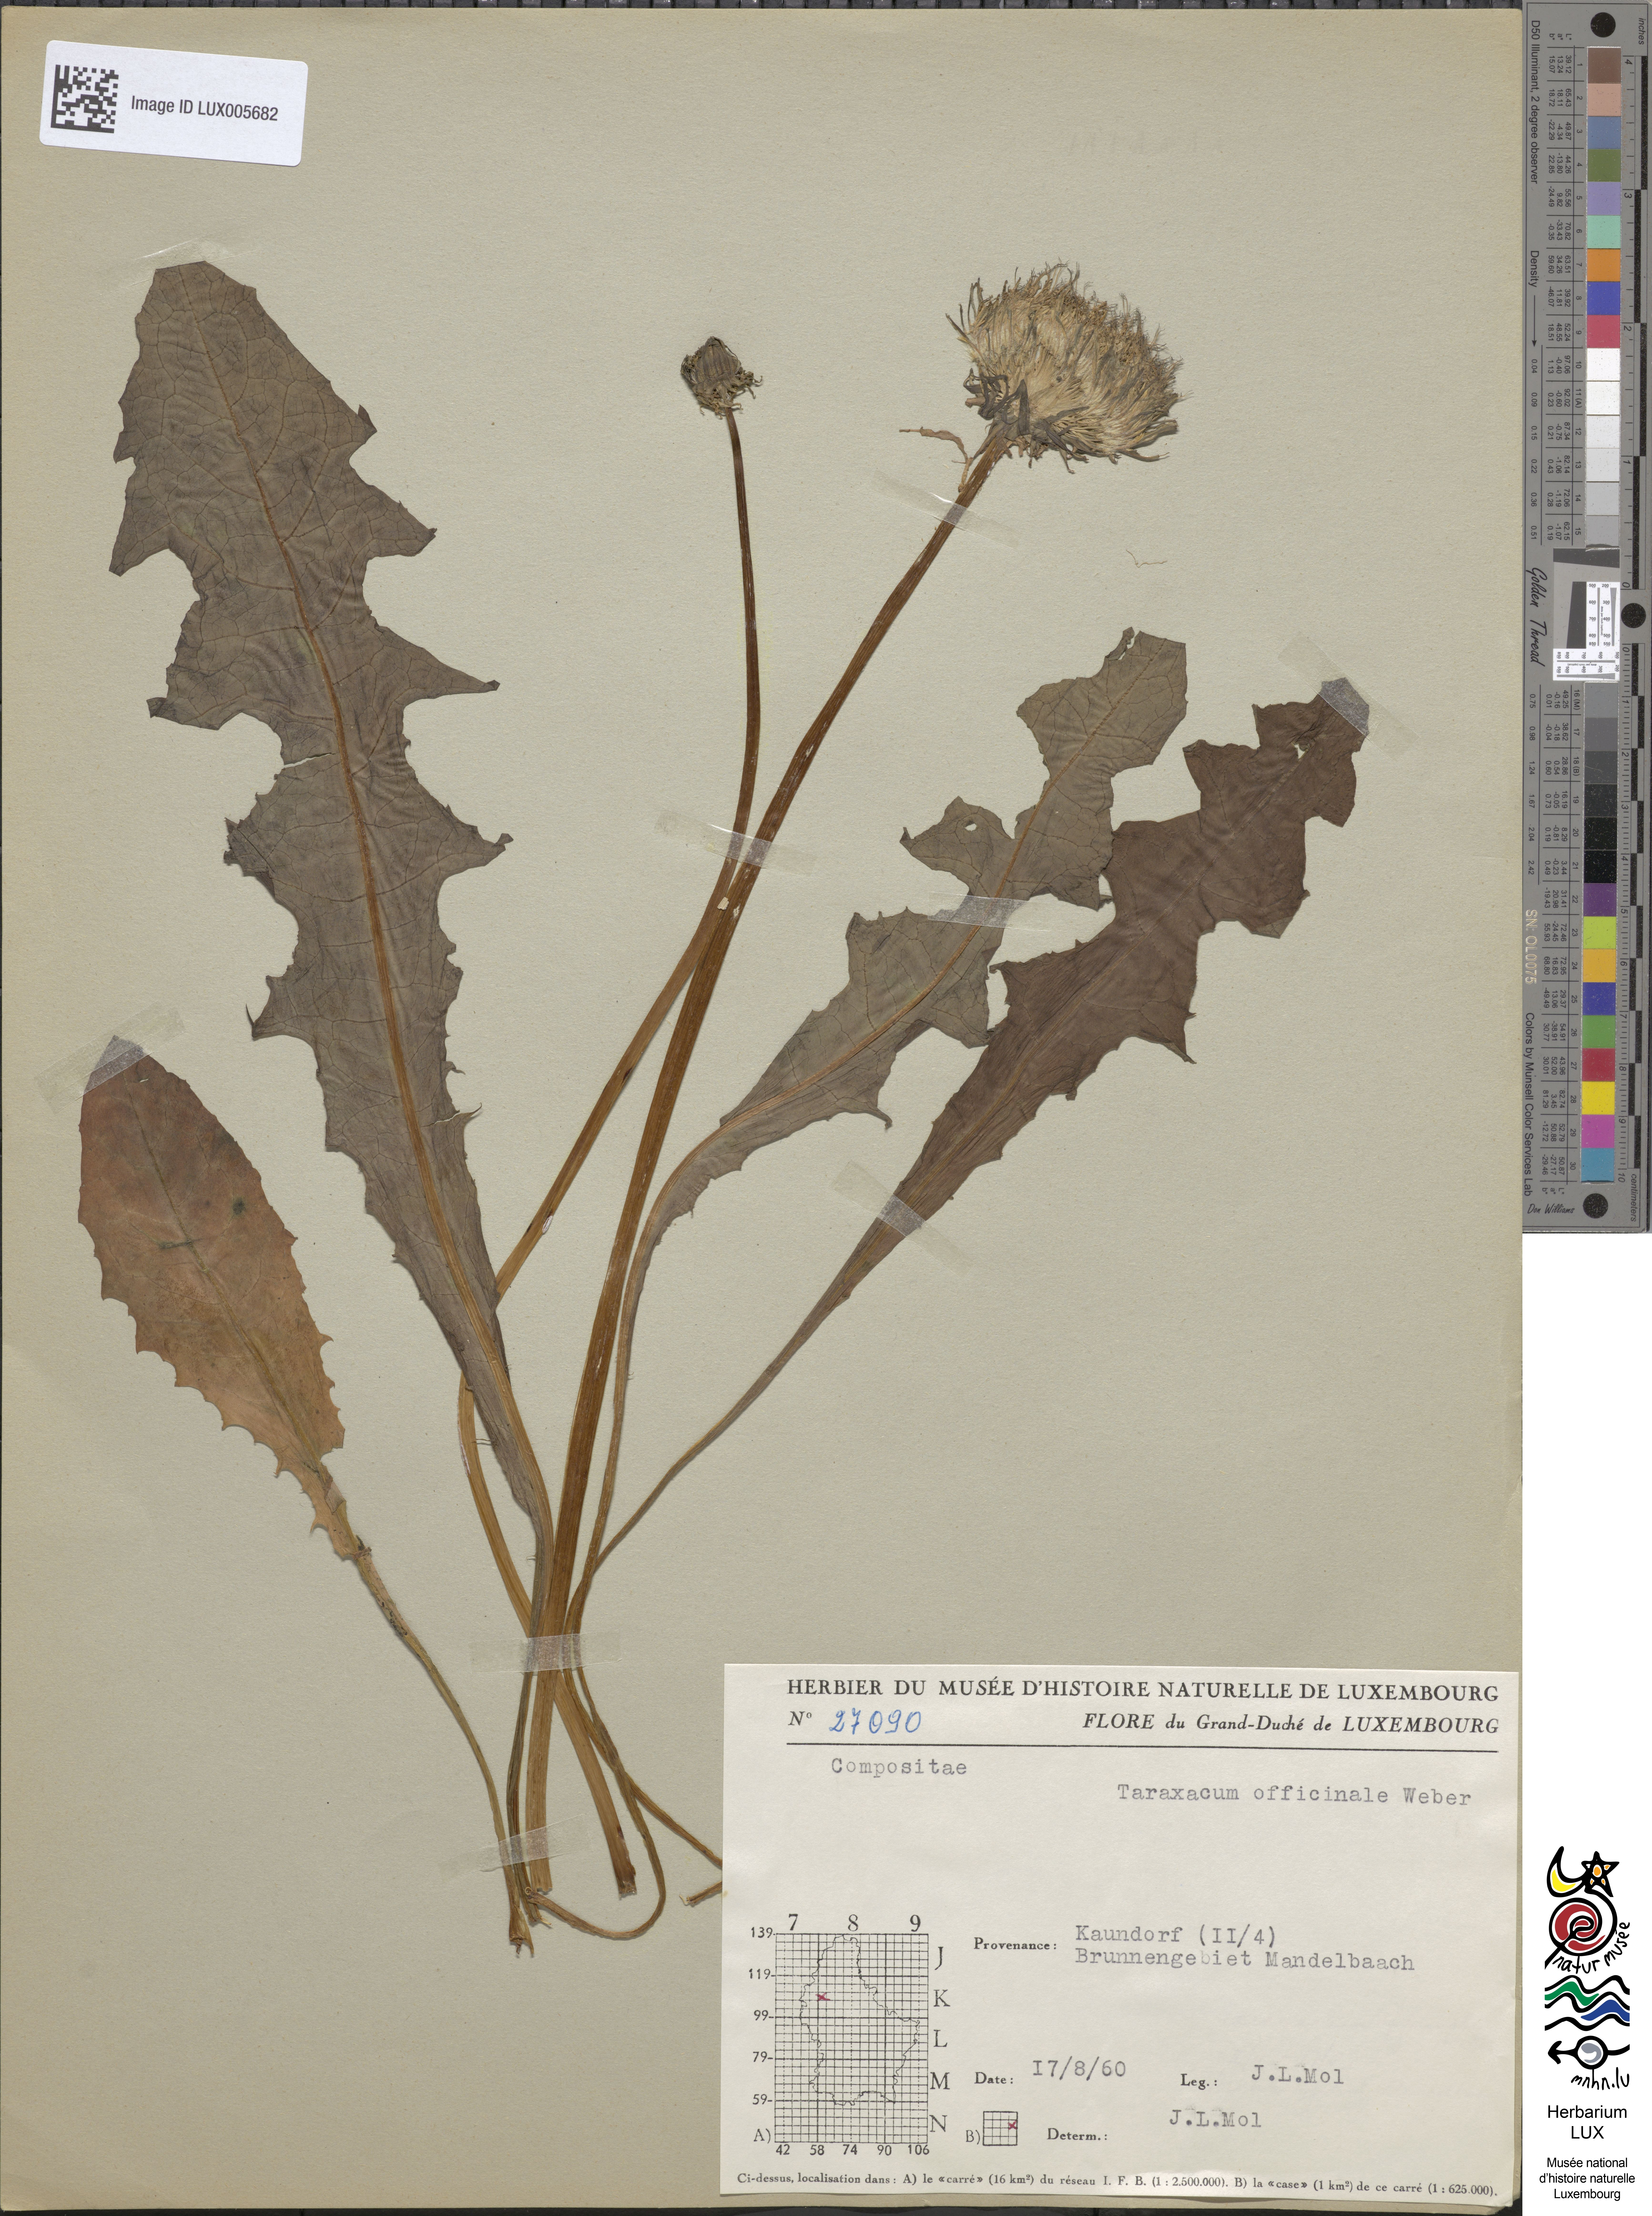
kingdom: Plantae
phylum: Tracheophyta
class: Magnoliopsida
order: Asterales
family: Asteraceae
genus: Taraxacum
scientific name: Taraxacum
